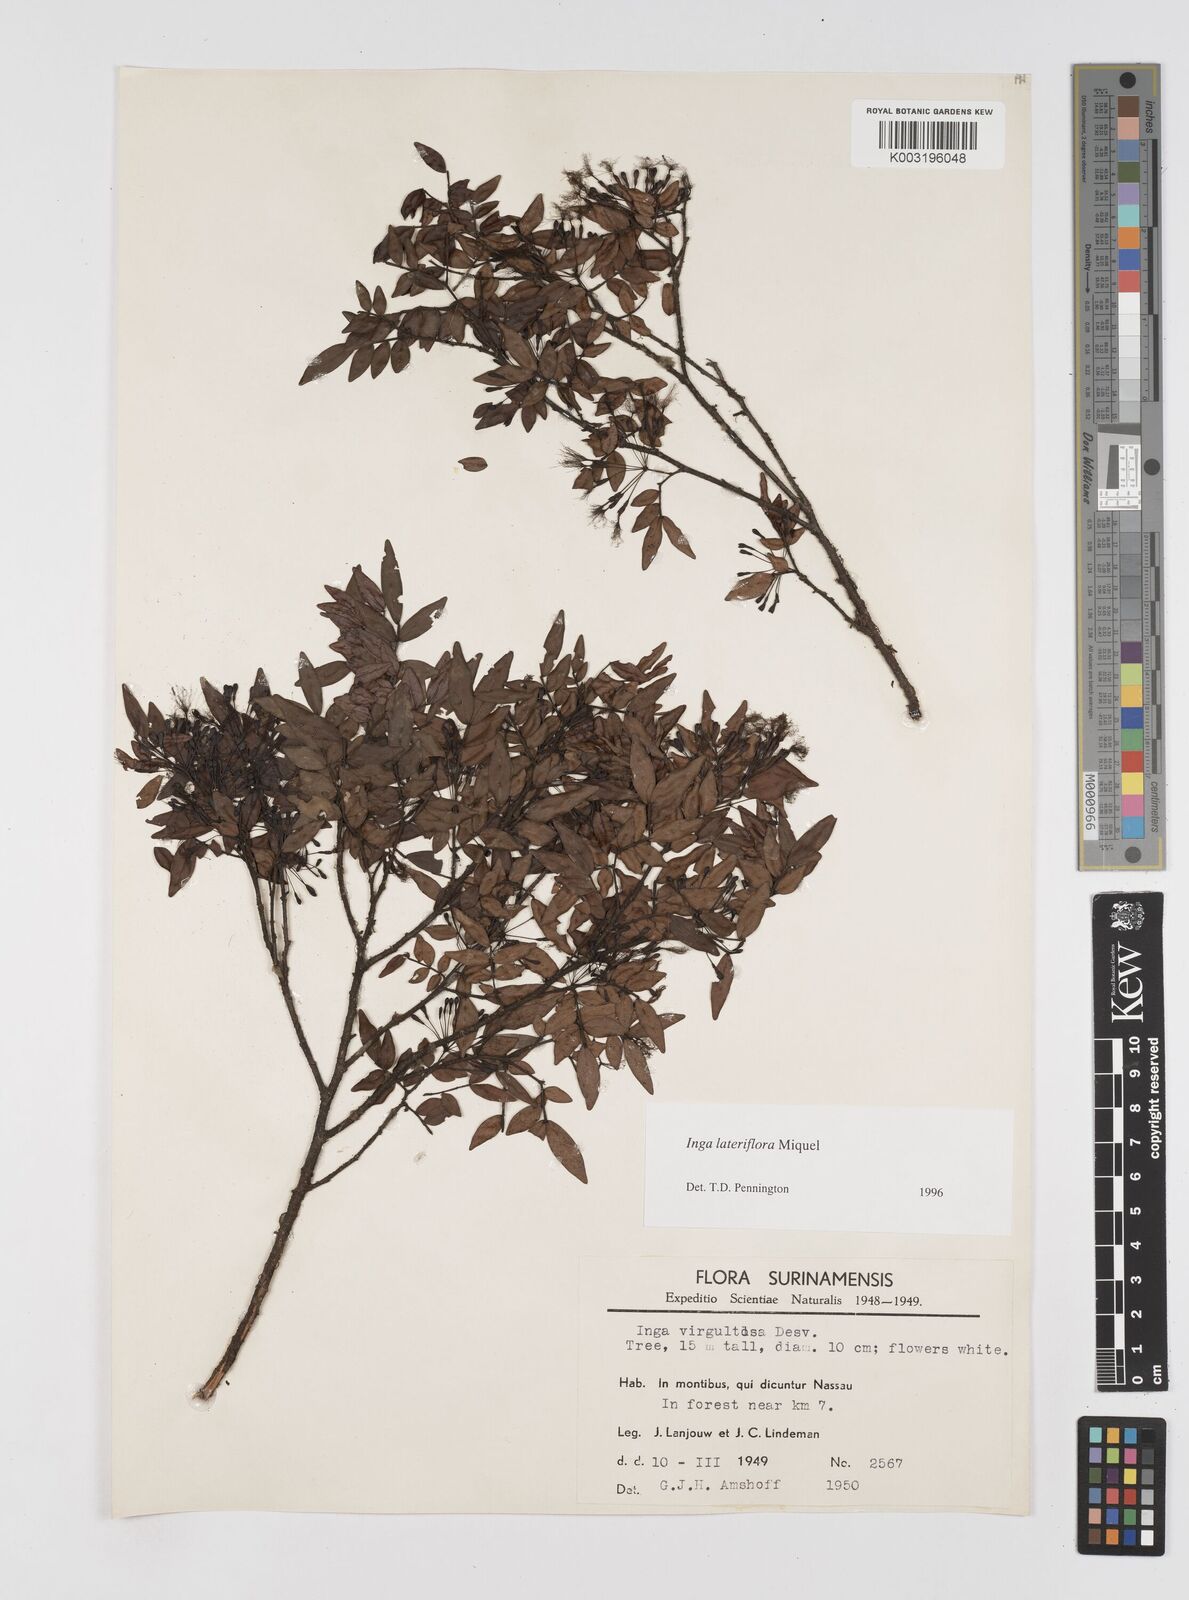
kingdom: Plantae
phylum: Tracheophyta
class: Magnoliopsida
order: Fabales
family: Fabaceae
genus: Inga
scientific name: Inga lateriflora
